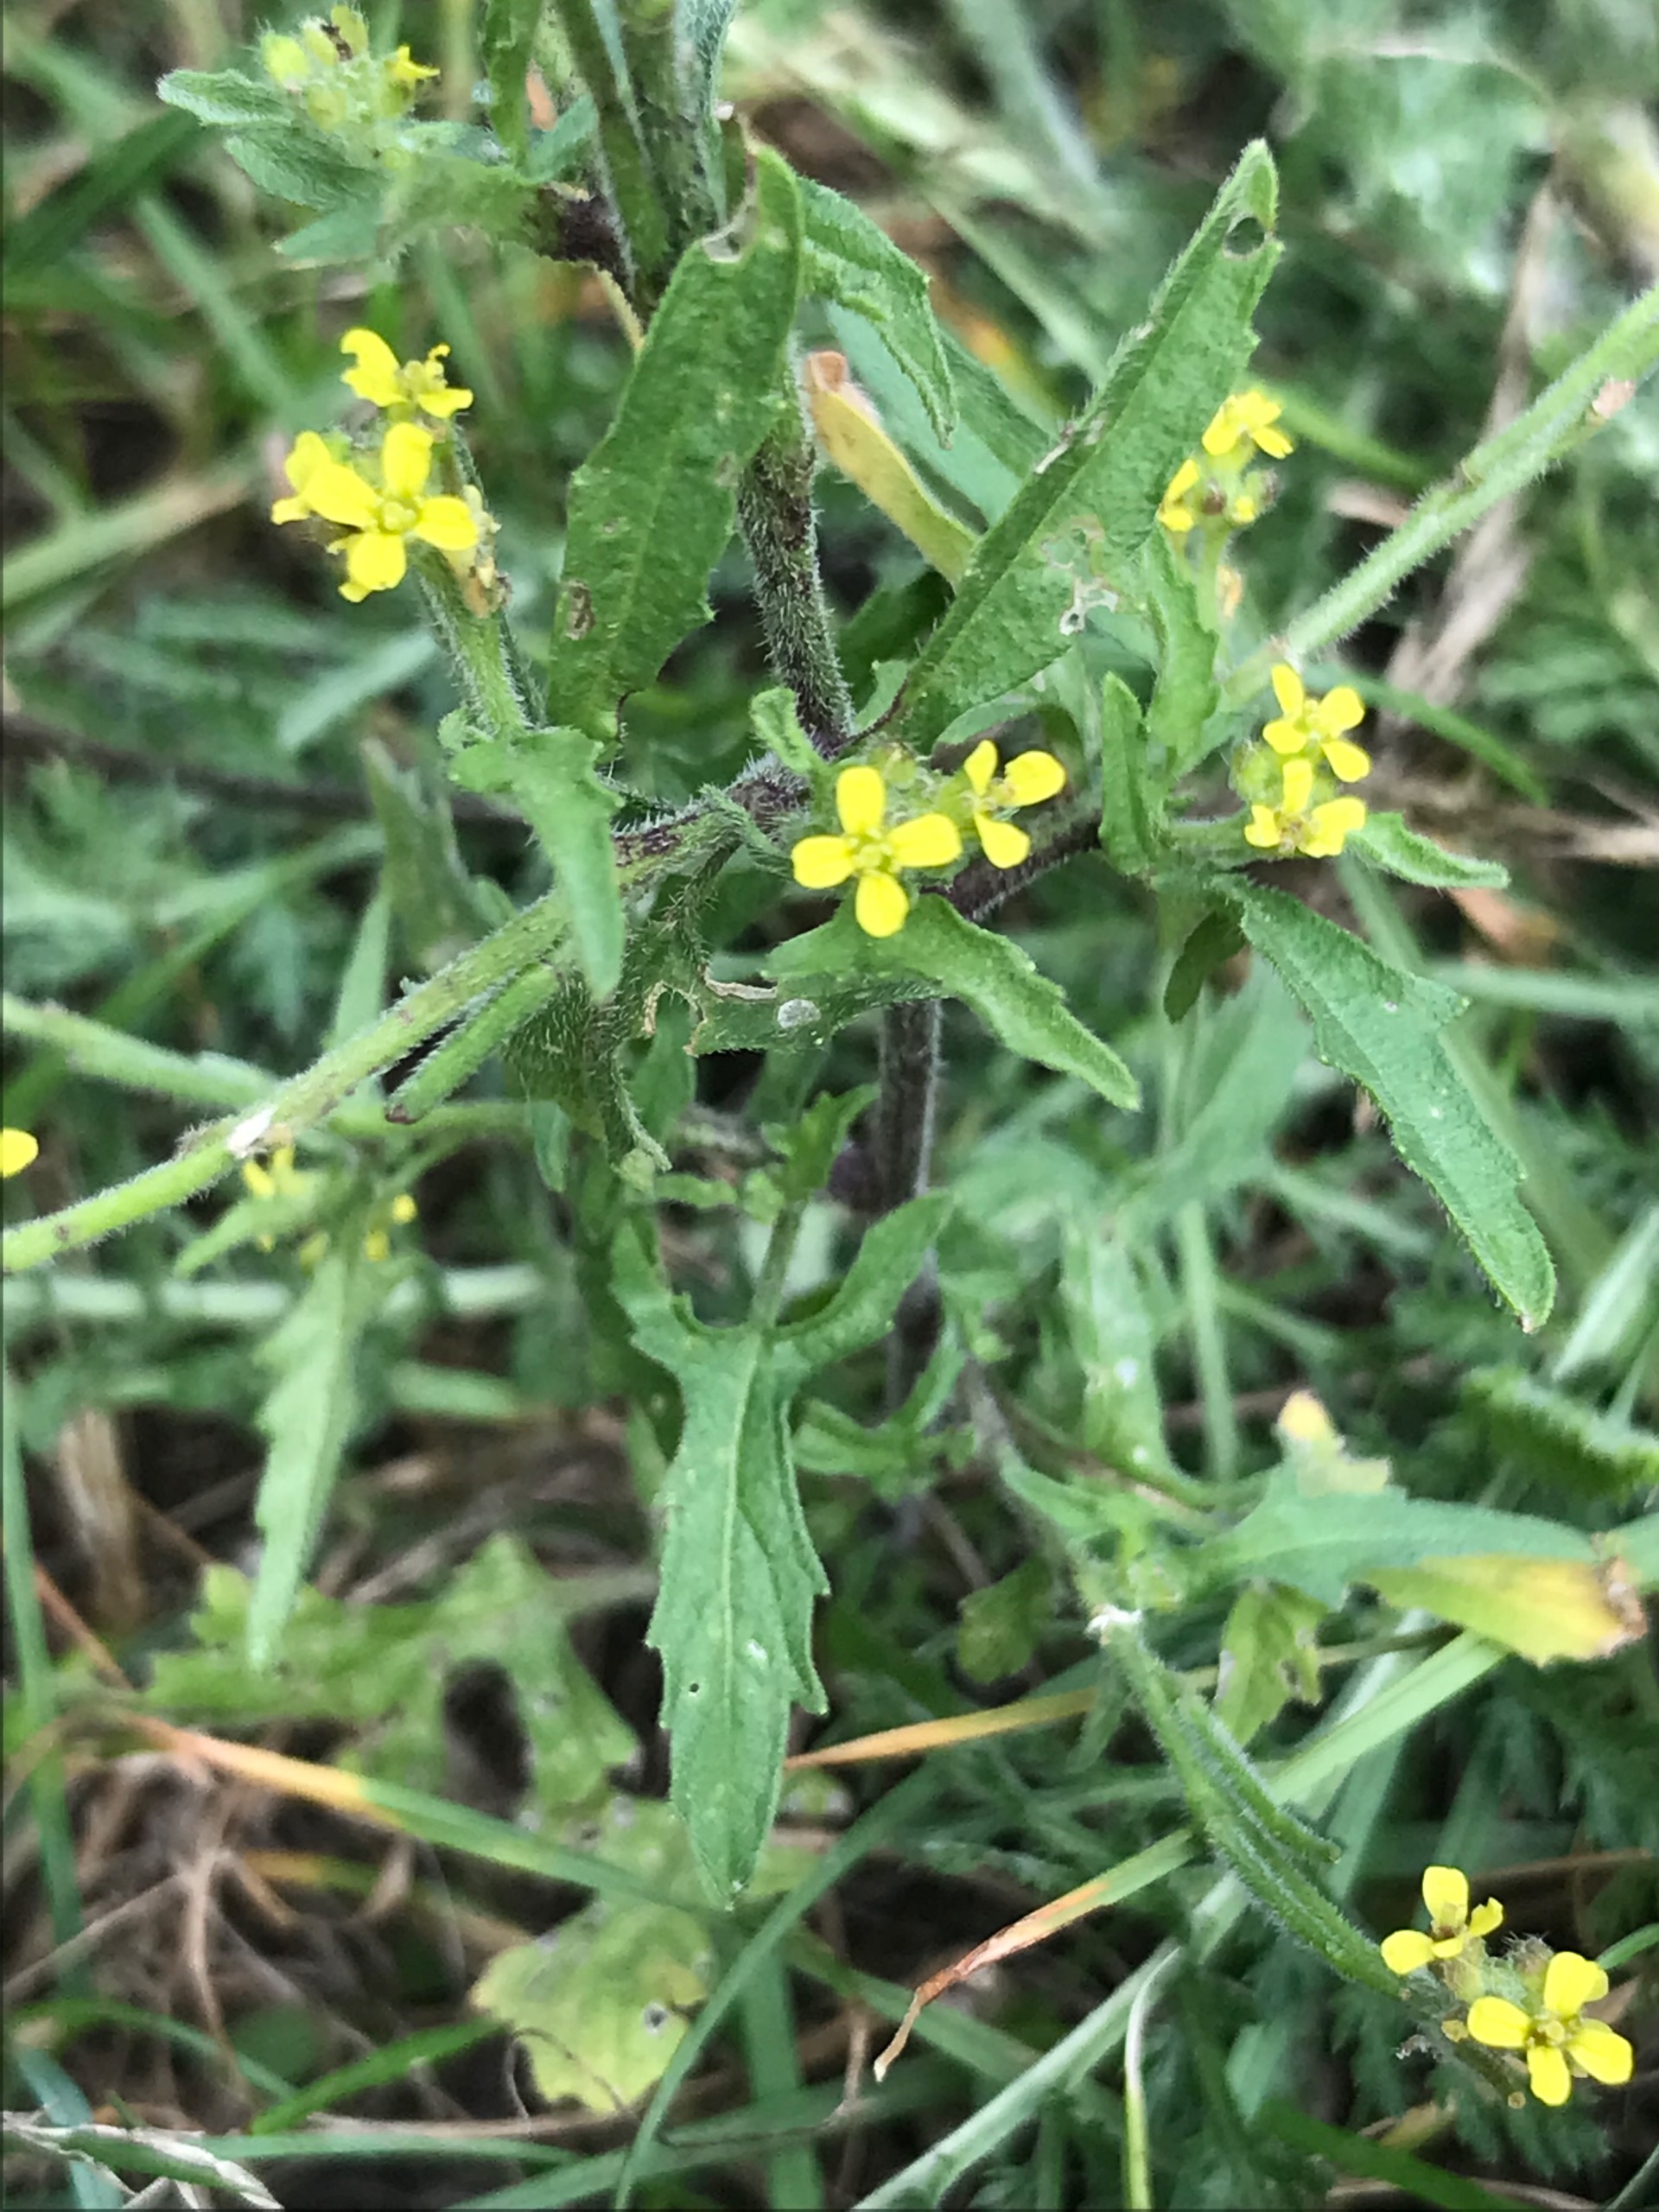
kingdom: Plantae
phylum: Tracheophyta
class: Magnoliopsida
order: Brassicales
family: Brassicaceae
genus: Sisymbrium
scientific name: Sisymbrium officinale
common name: Rank vejsennep
